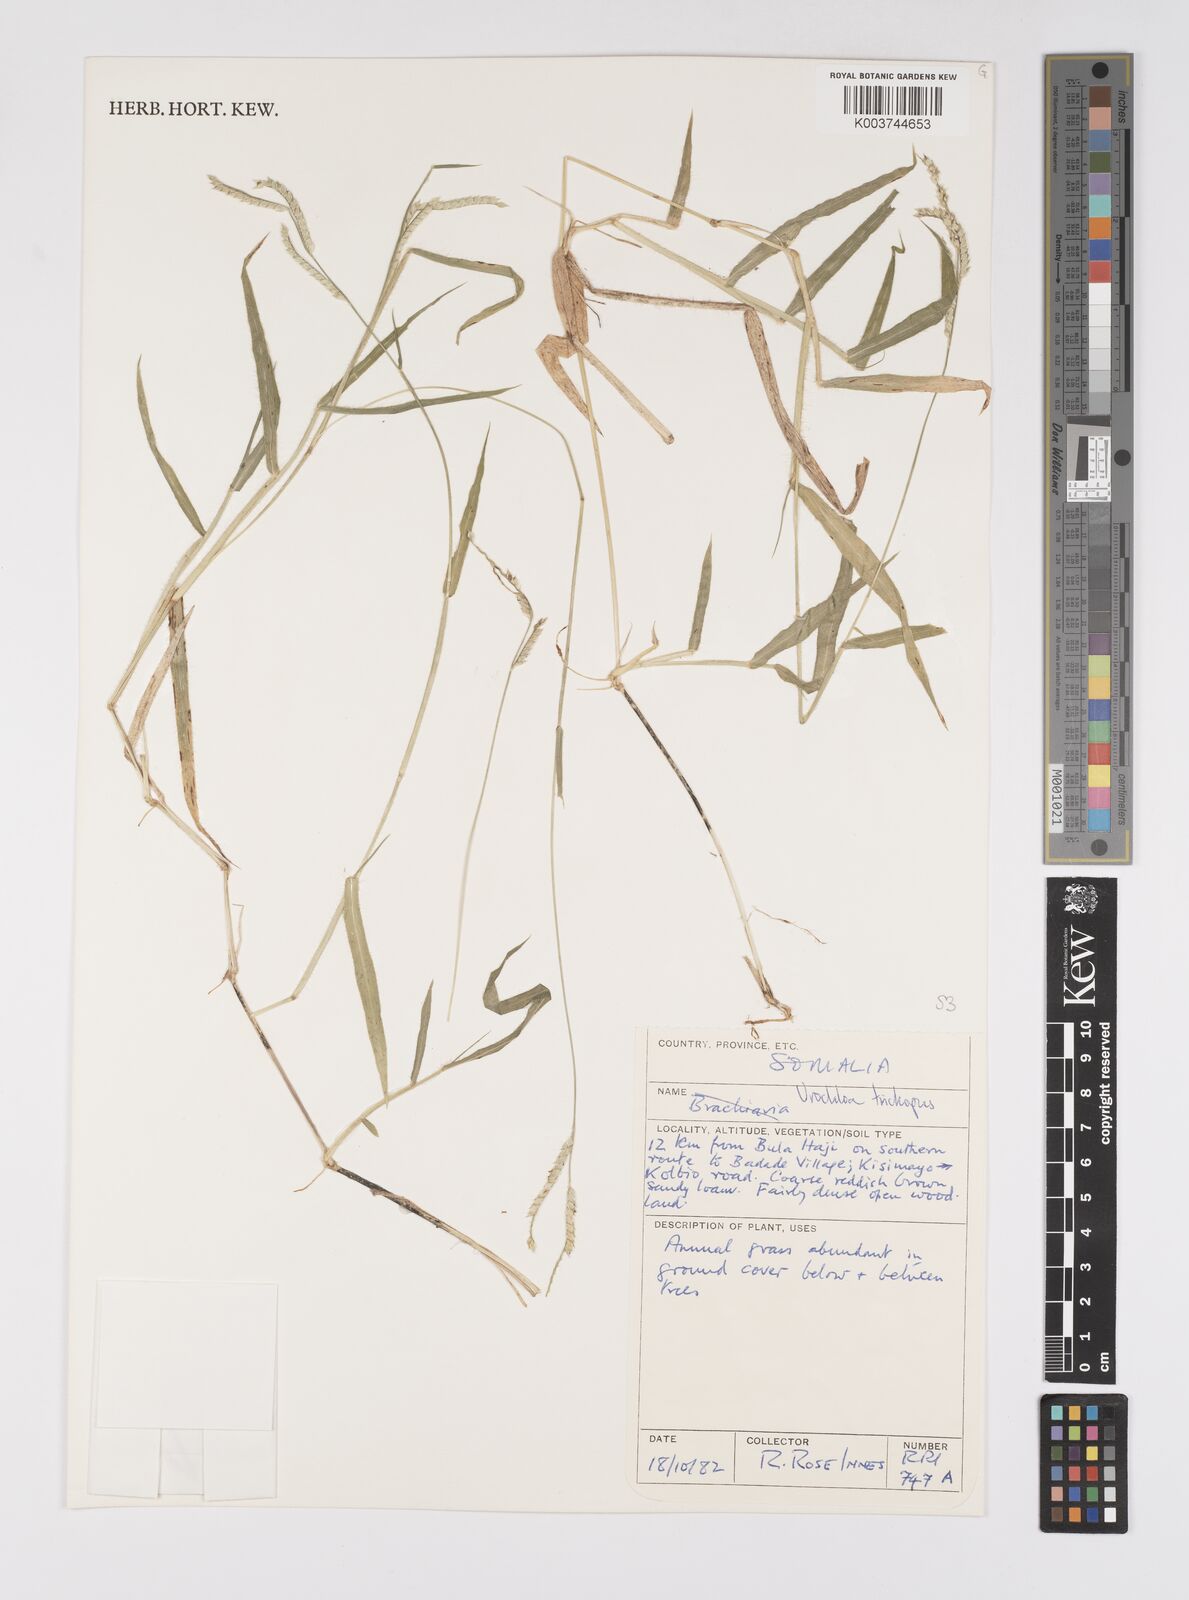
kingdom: Plantae
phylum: Tracheophyta
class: Liliopsida
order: Poales
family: Poaceae
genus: Urochloa
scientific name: Urochloa trichopus
